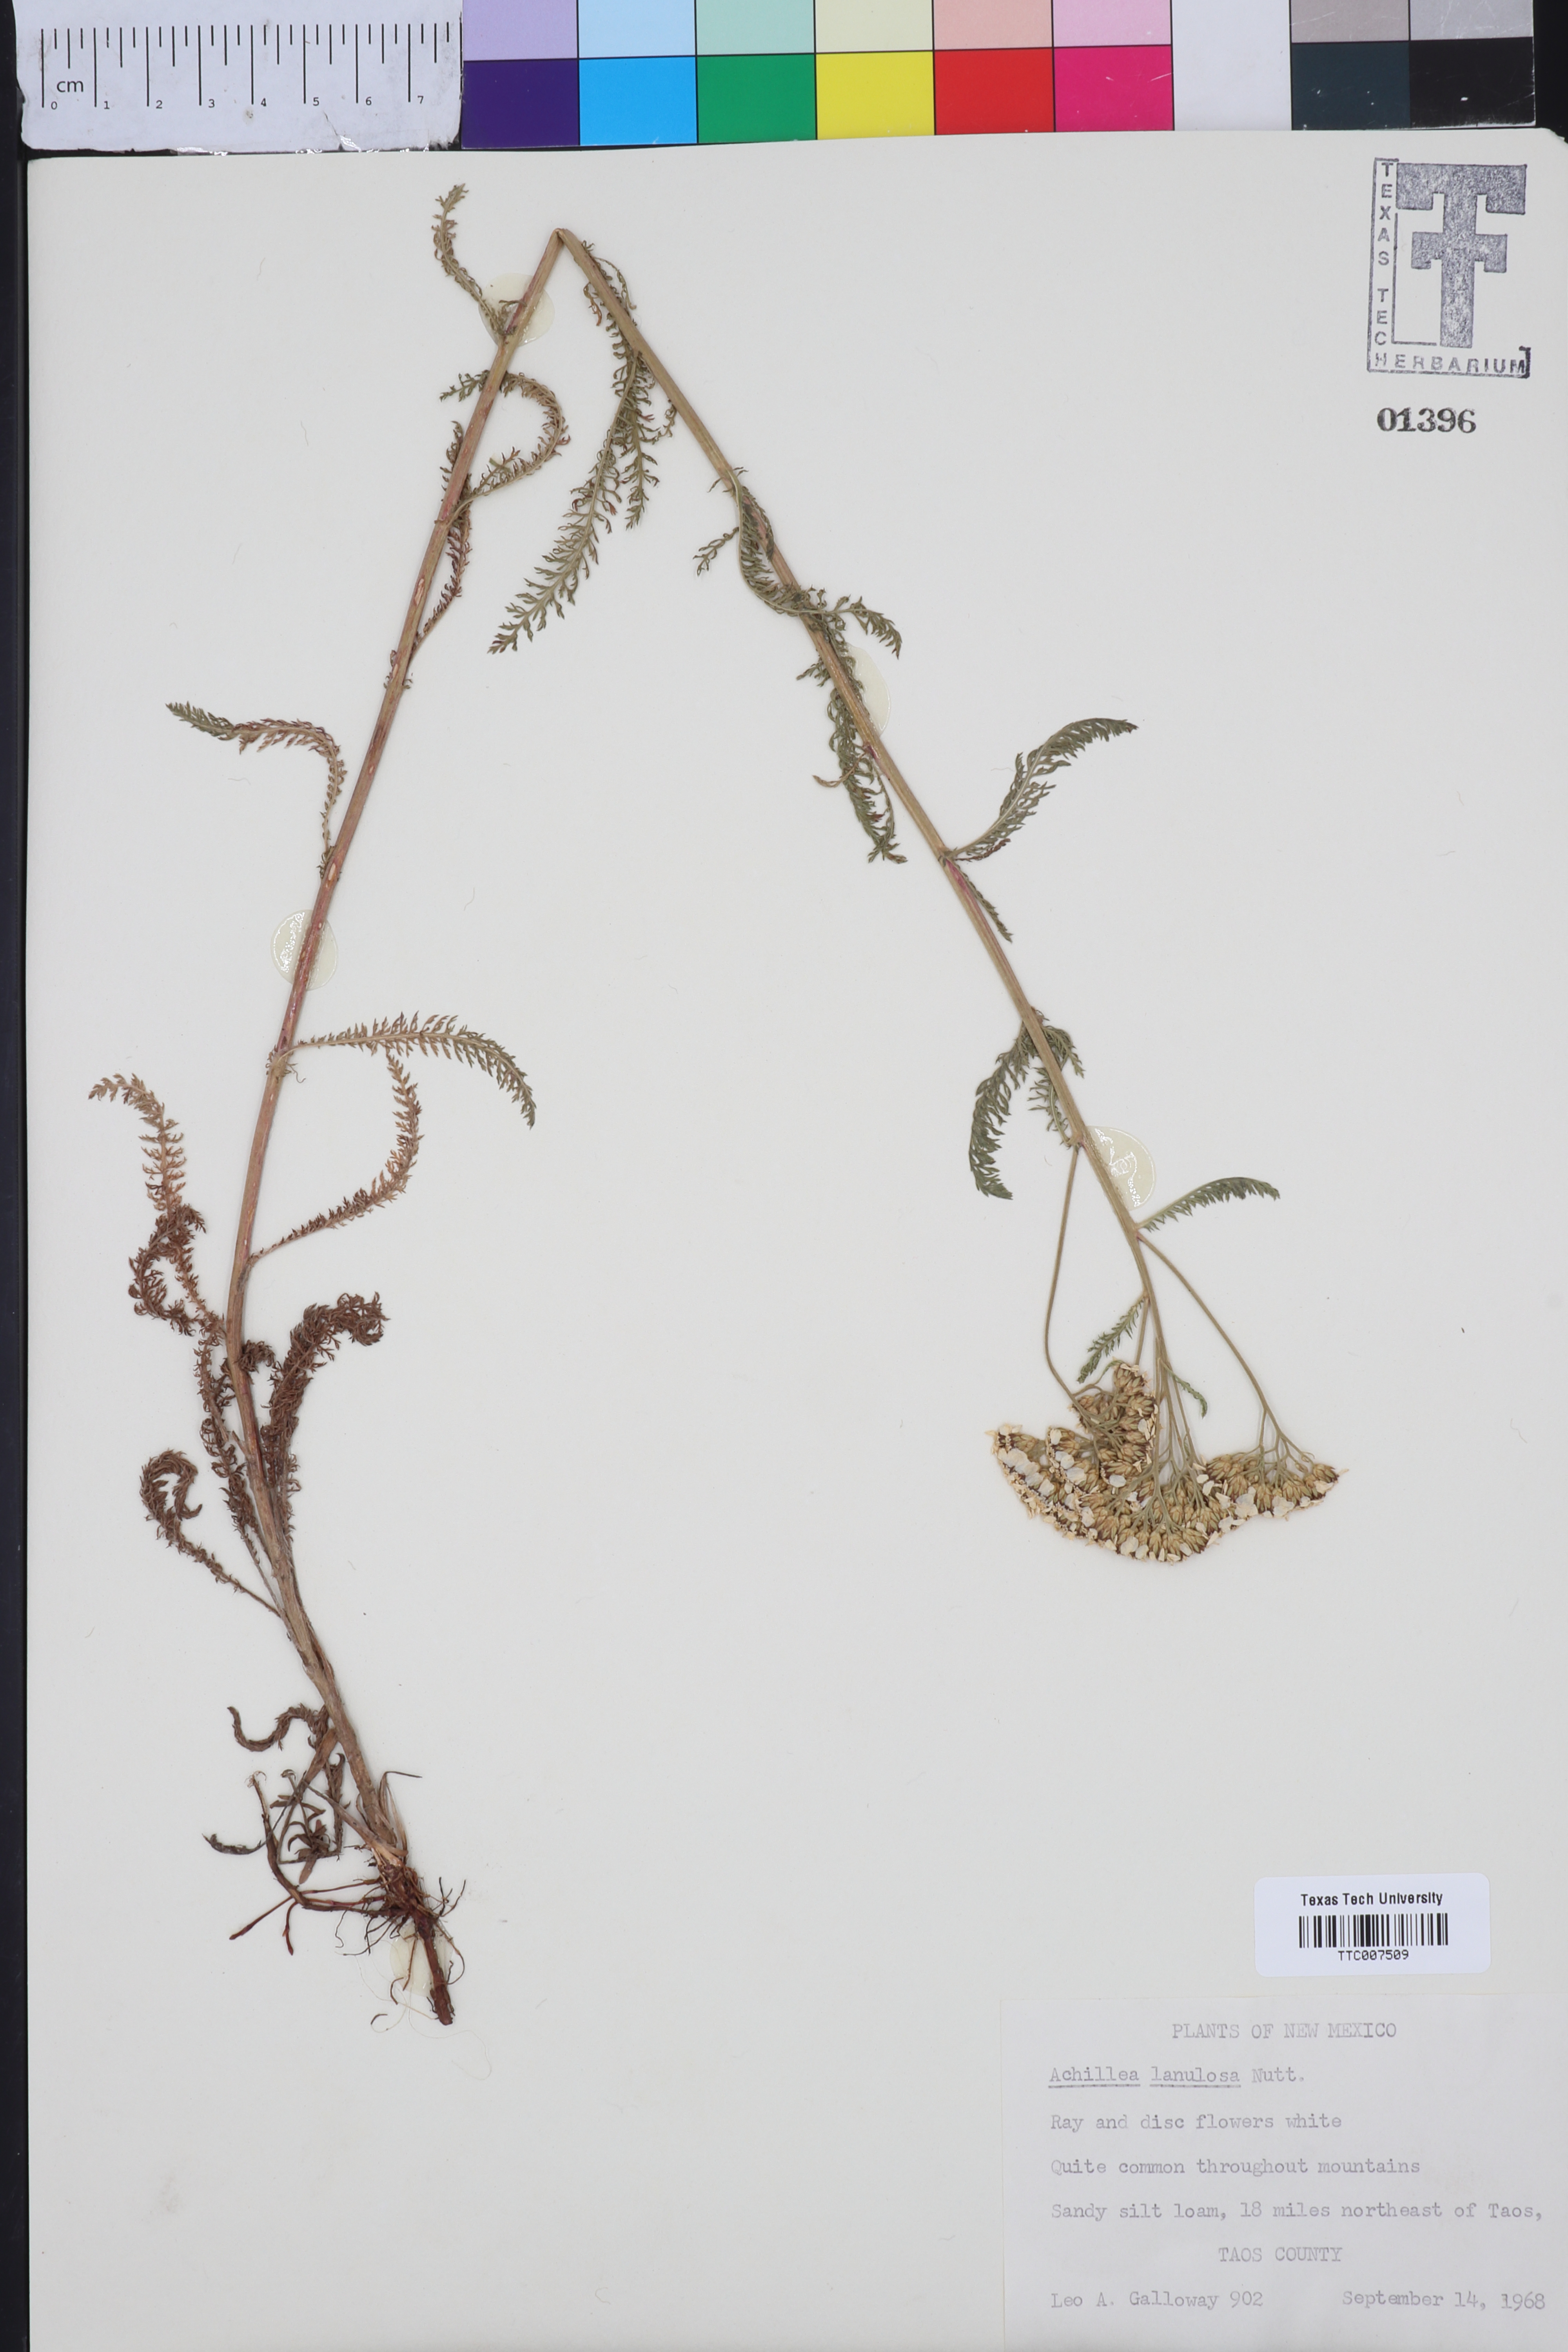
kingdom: Plantae
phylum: Tracheophyta
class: Magnoliopsida
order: Asterales
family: Asteraceae
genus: Achillea
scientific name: Achillea millefolium
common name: Yarrow
